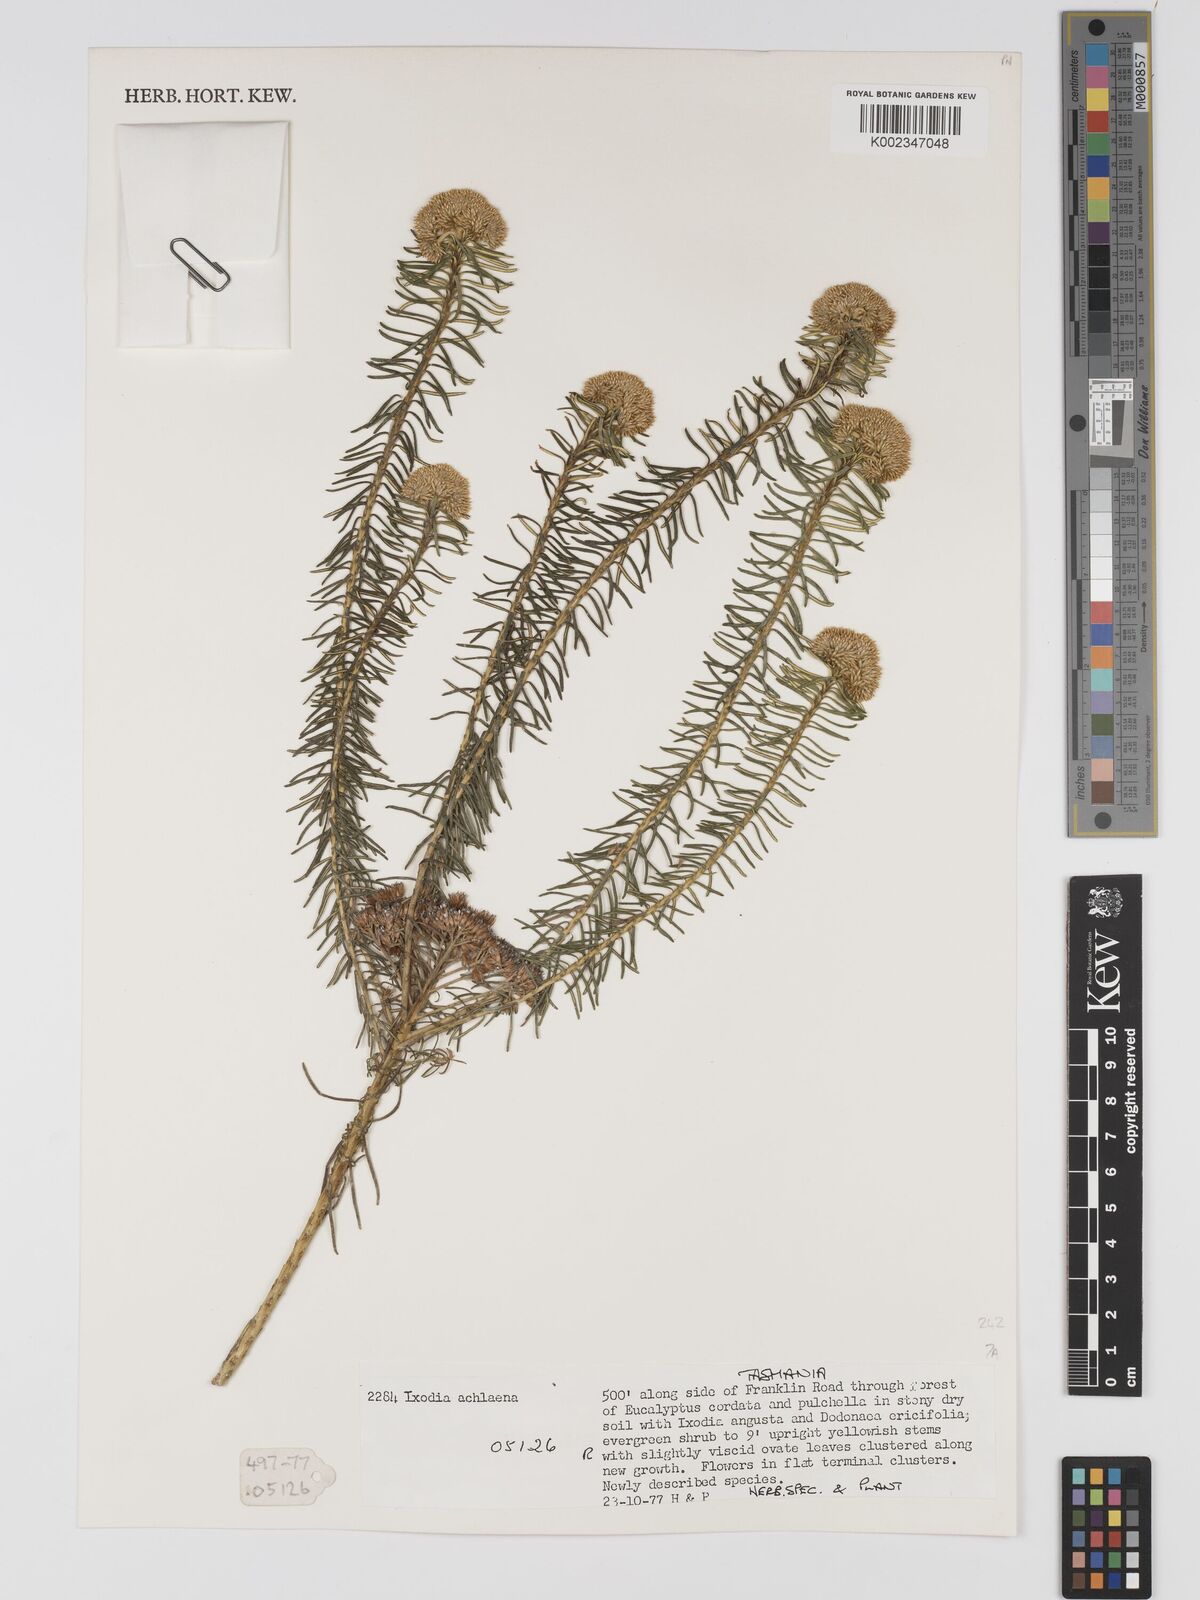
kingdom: Plantae
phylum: Tracheophyta
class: Magnoliopsida
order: Asterales
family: Asteraceae
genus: Odixia
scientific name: Odixia achlaena
